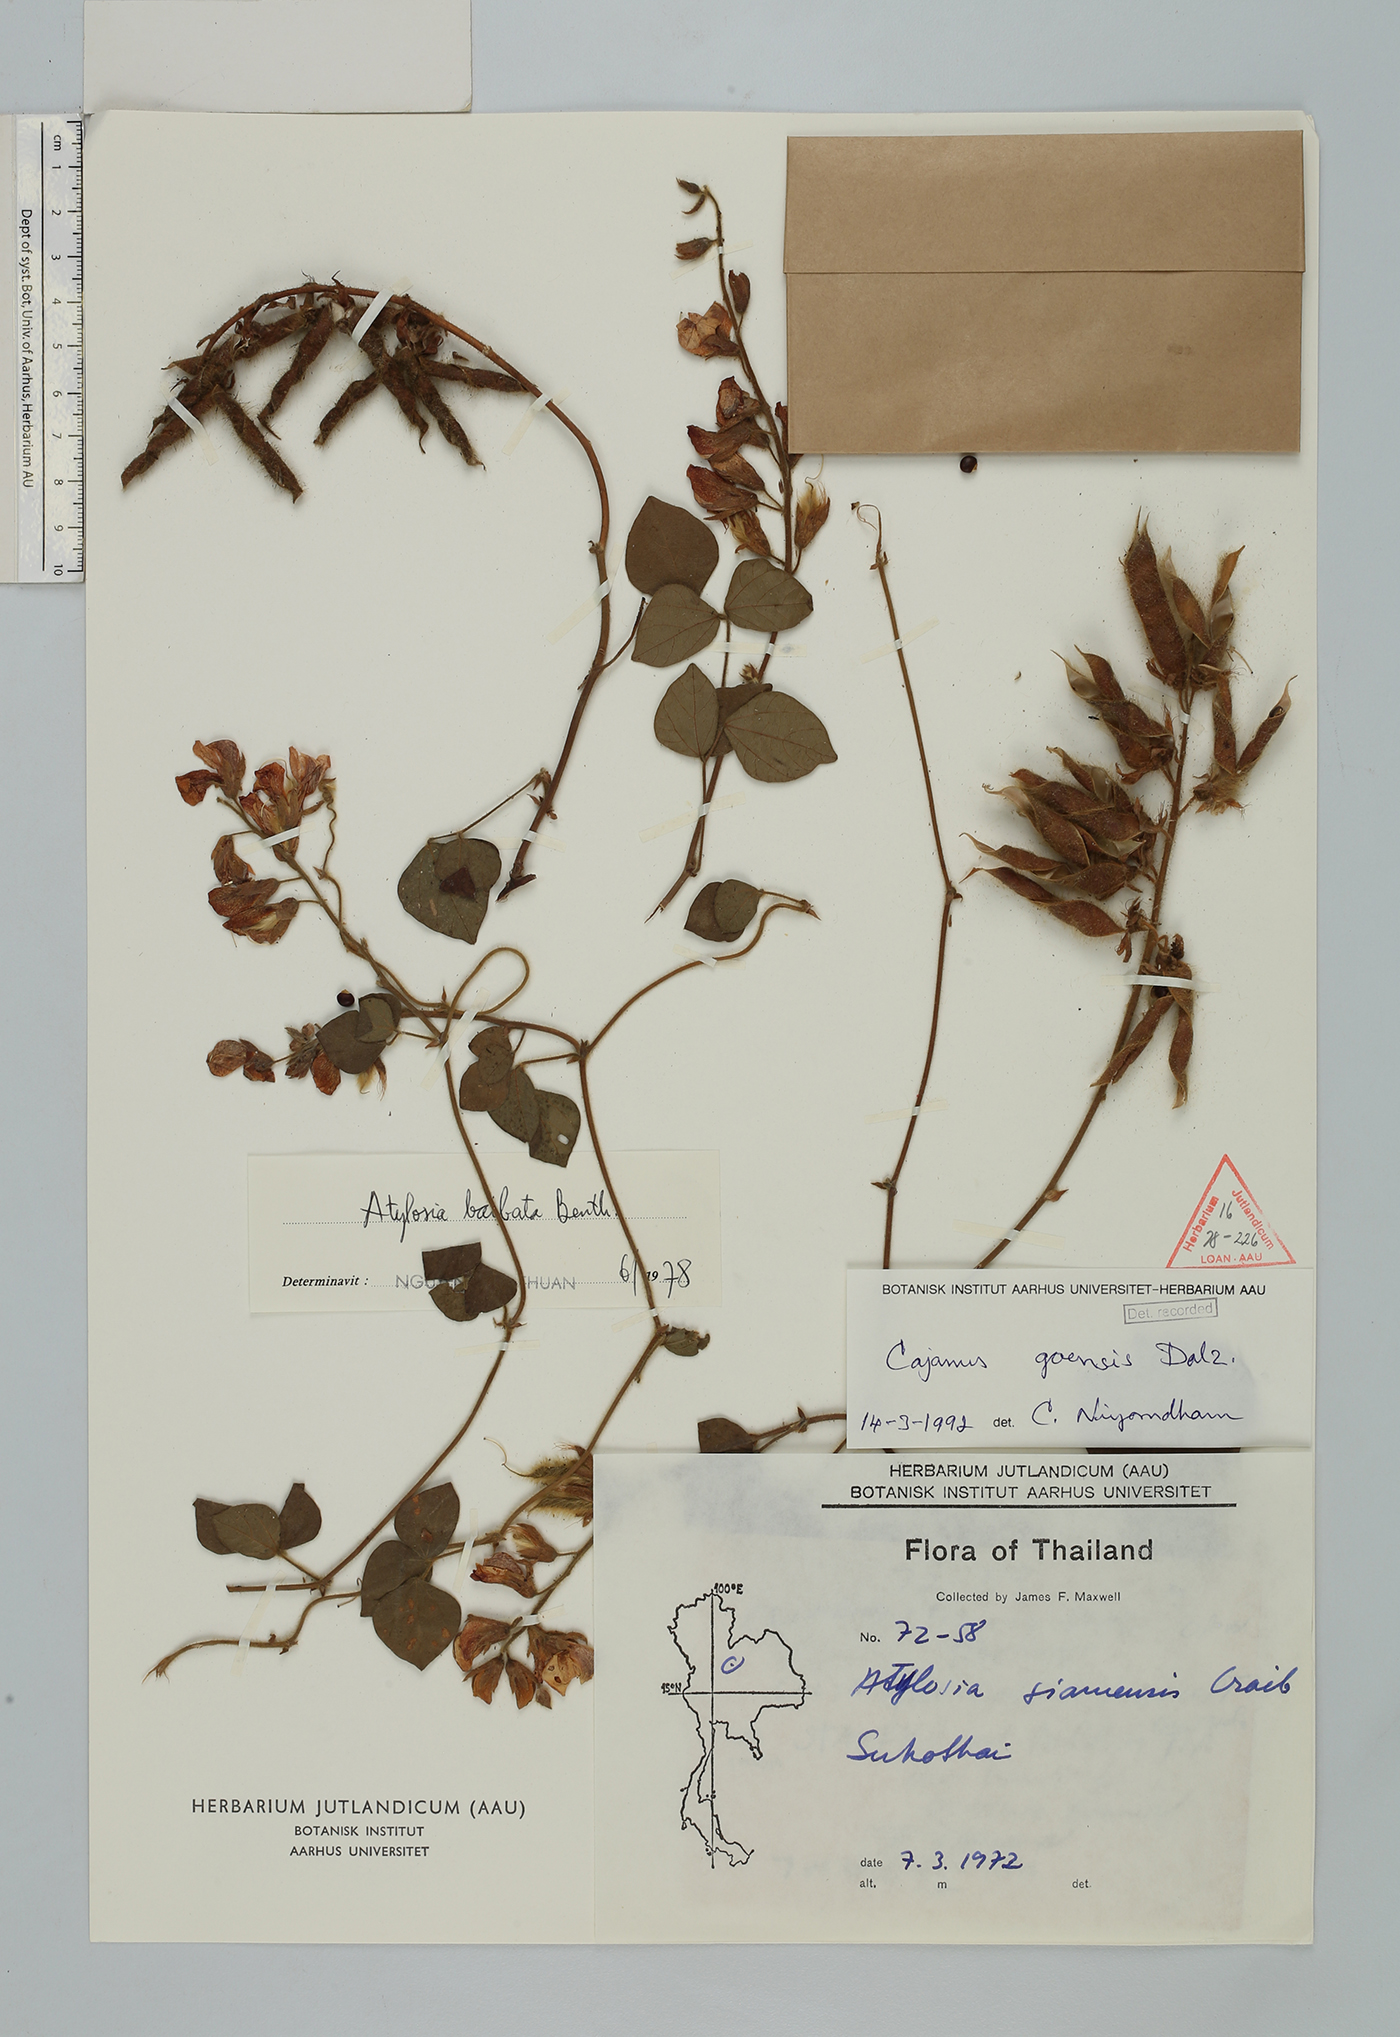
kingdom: Plantae
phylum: Tracheophyta
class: Magnoliopsida
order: Fabales
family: Fabaceae
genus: Cajanus
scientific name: Cajanus goensis
